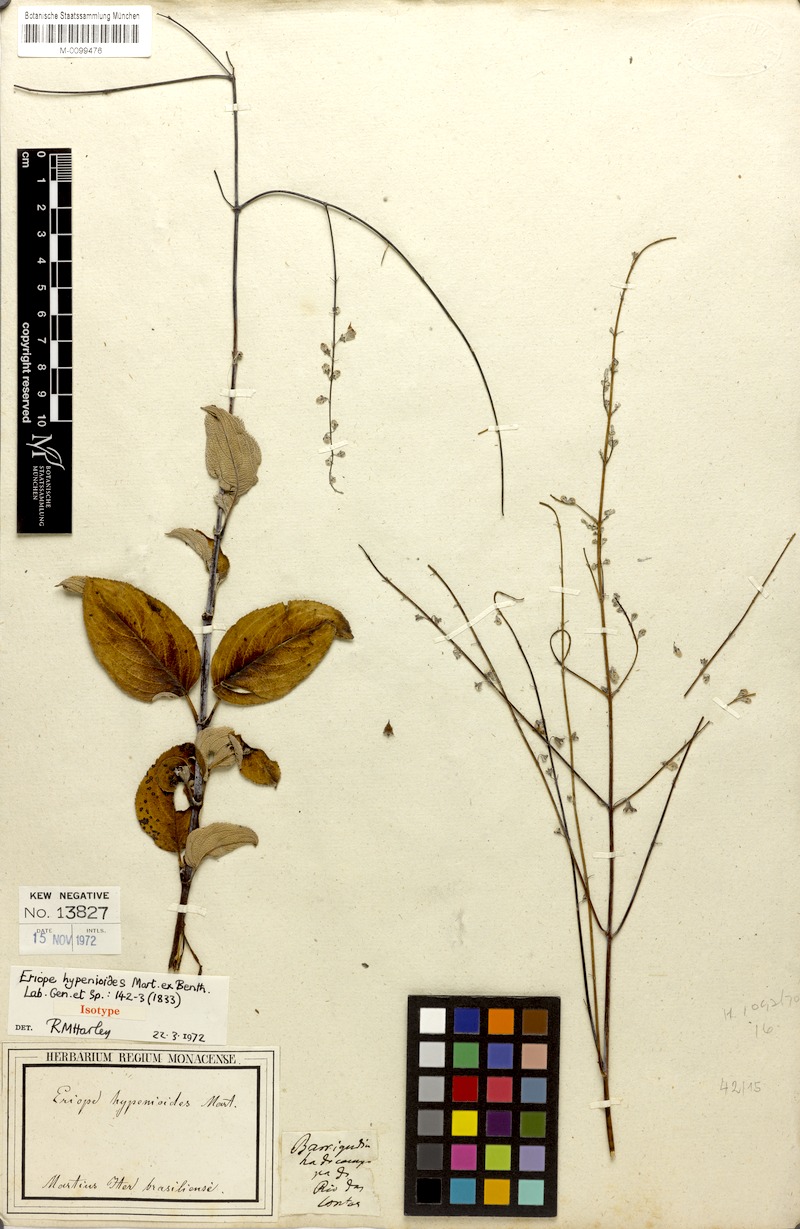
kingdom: Plantae
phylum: Tracheophyta
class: Magnoliopsida
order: Lamiales
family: Lamiaceae
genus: Eriope
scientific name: Eriope hypenioides
